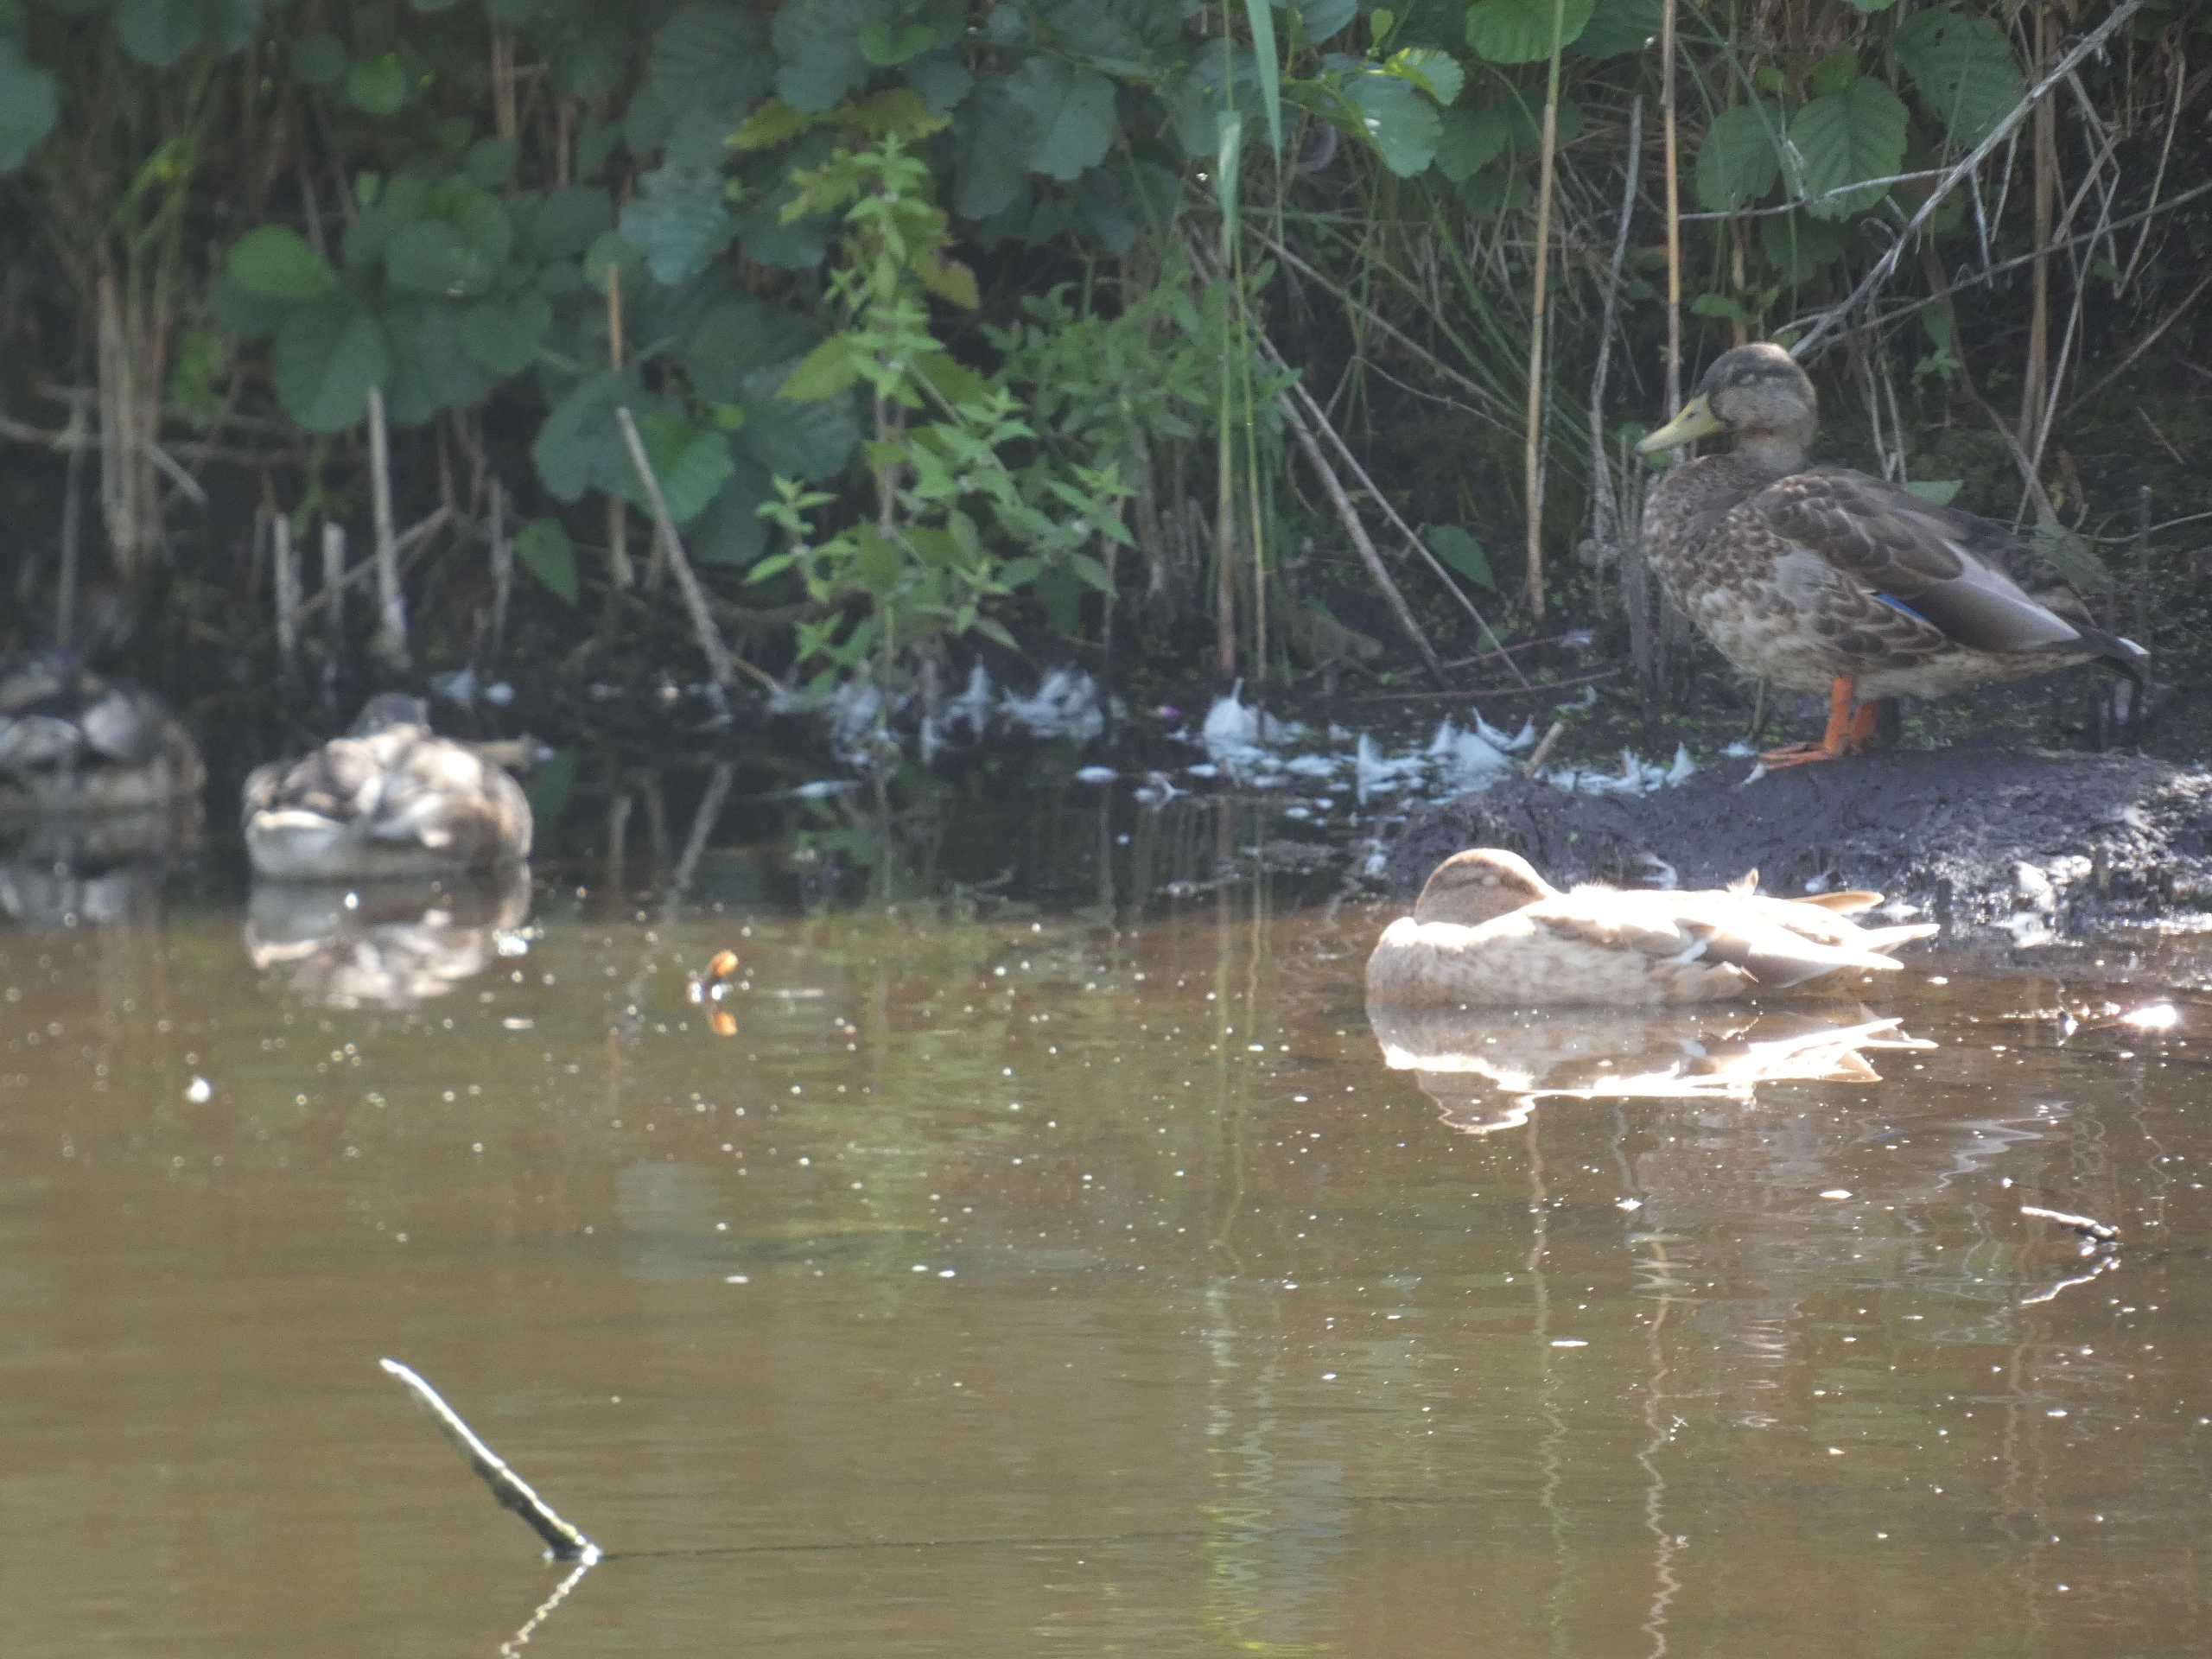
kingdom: Animalia
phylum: Chordata
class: Aves
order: Anseriformes
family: Anatidae
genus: Anas
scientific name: Anas platyrhynchos
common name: Gråand
